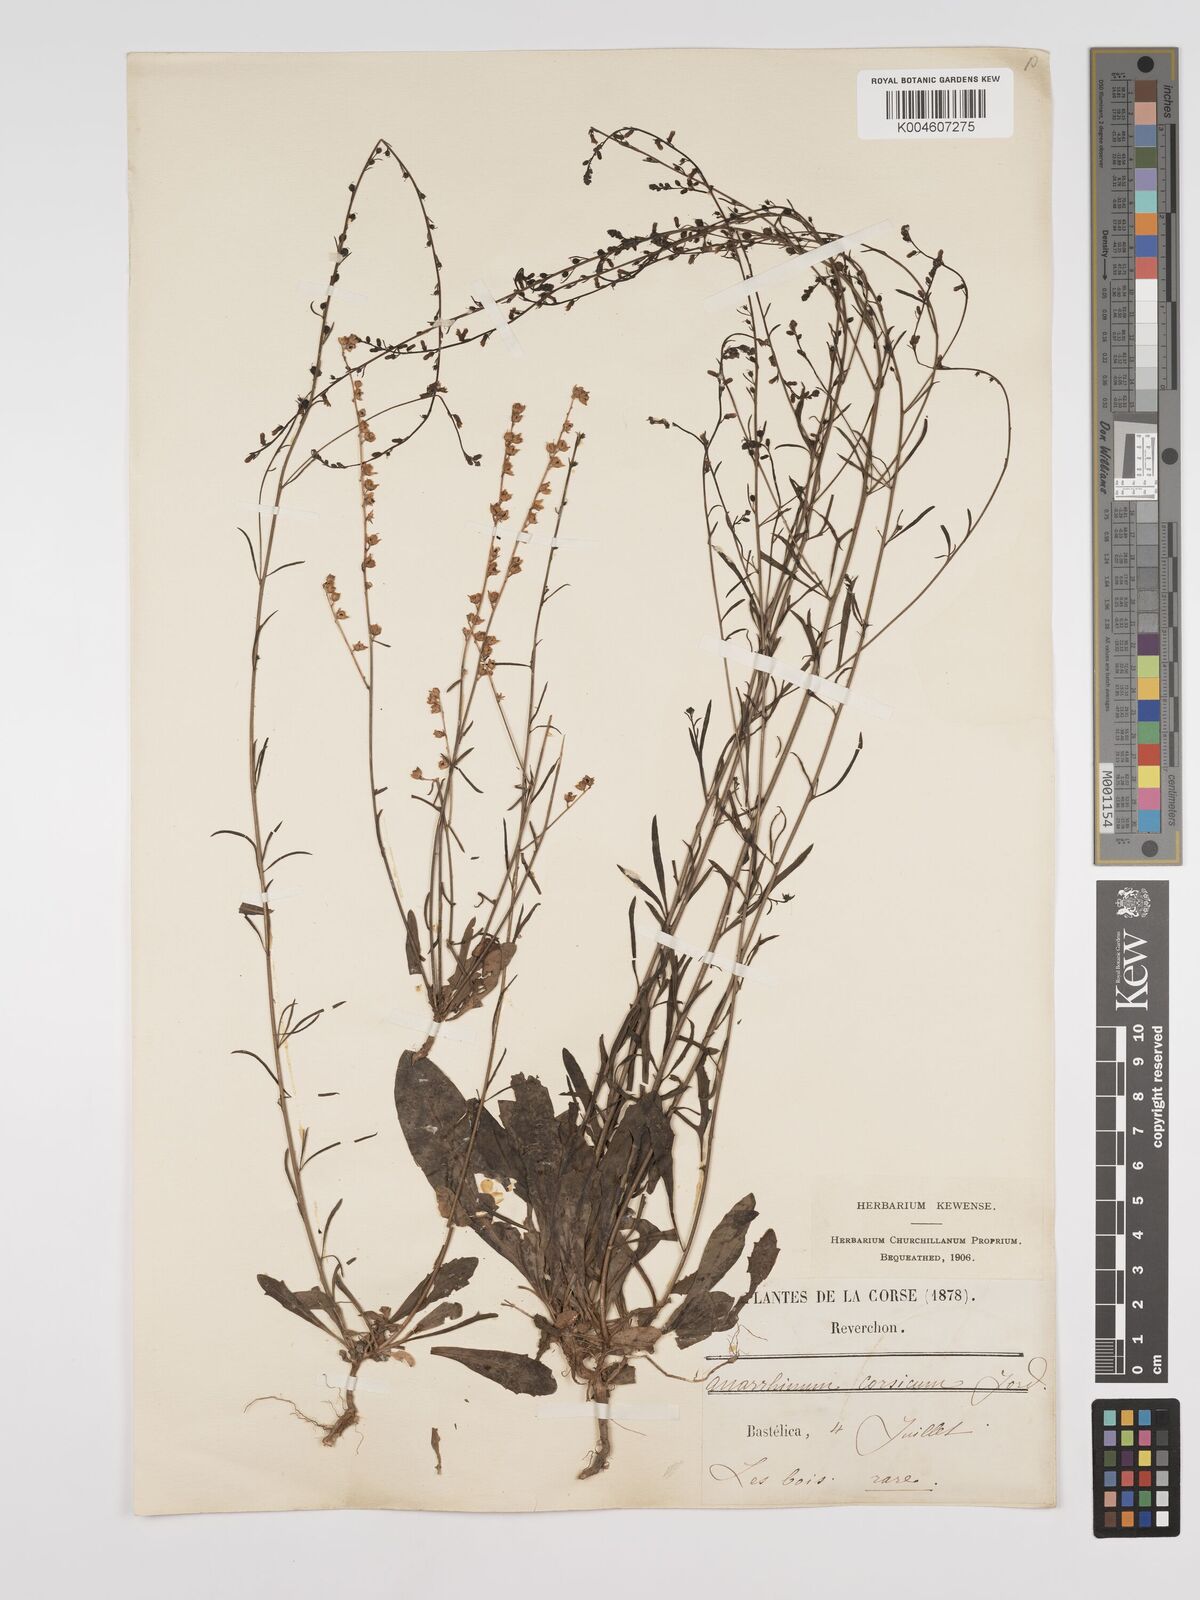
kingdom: Plantae
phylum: Tracheophyta
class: Magnoliopsida
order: Lamiales
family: Plantaginaceae
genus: Anarrhinum
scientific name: Anarrhinum corsicum
